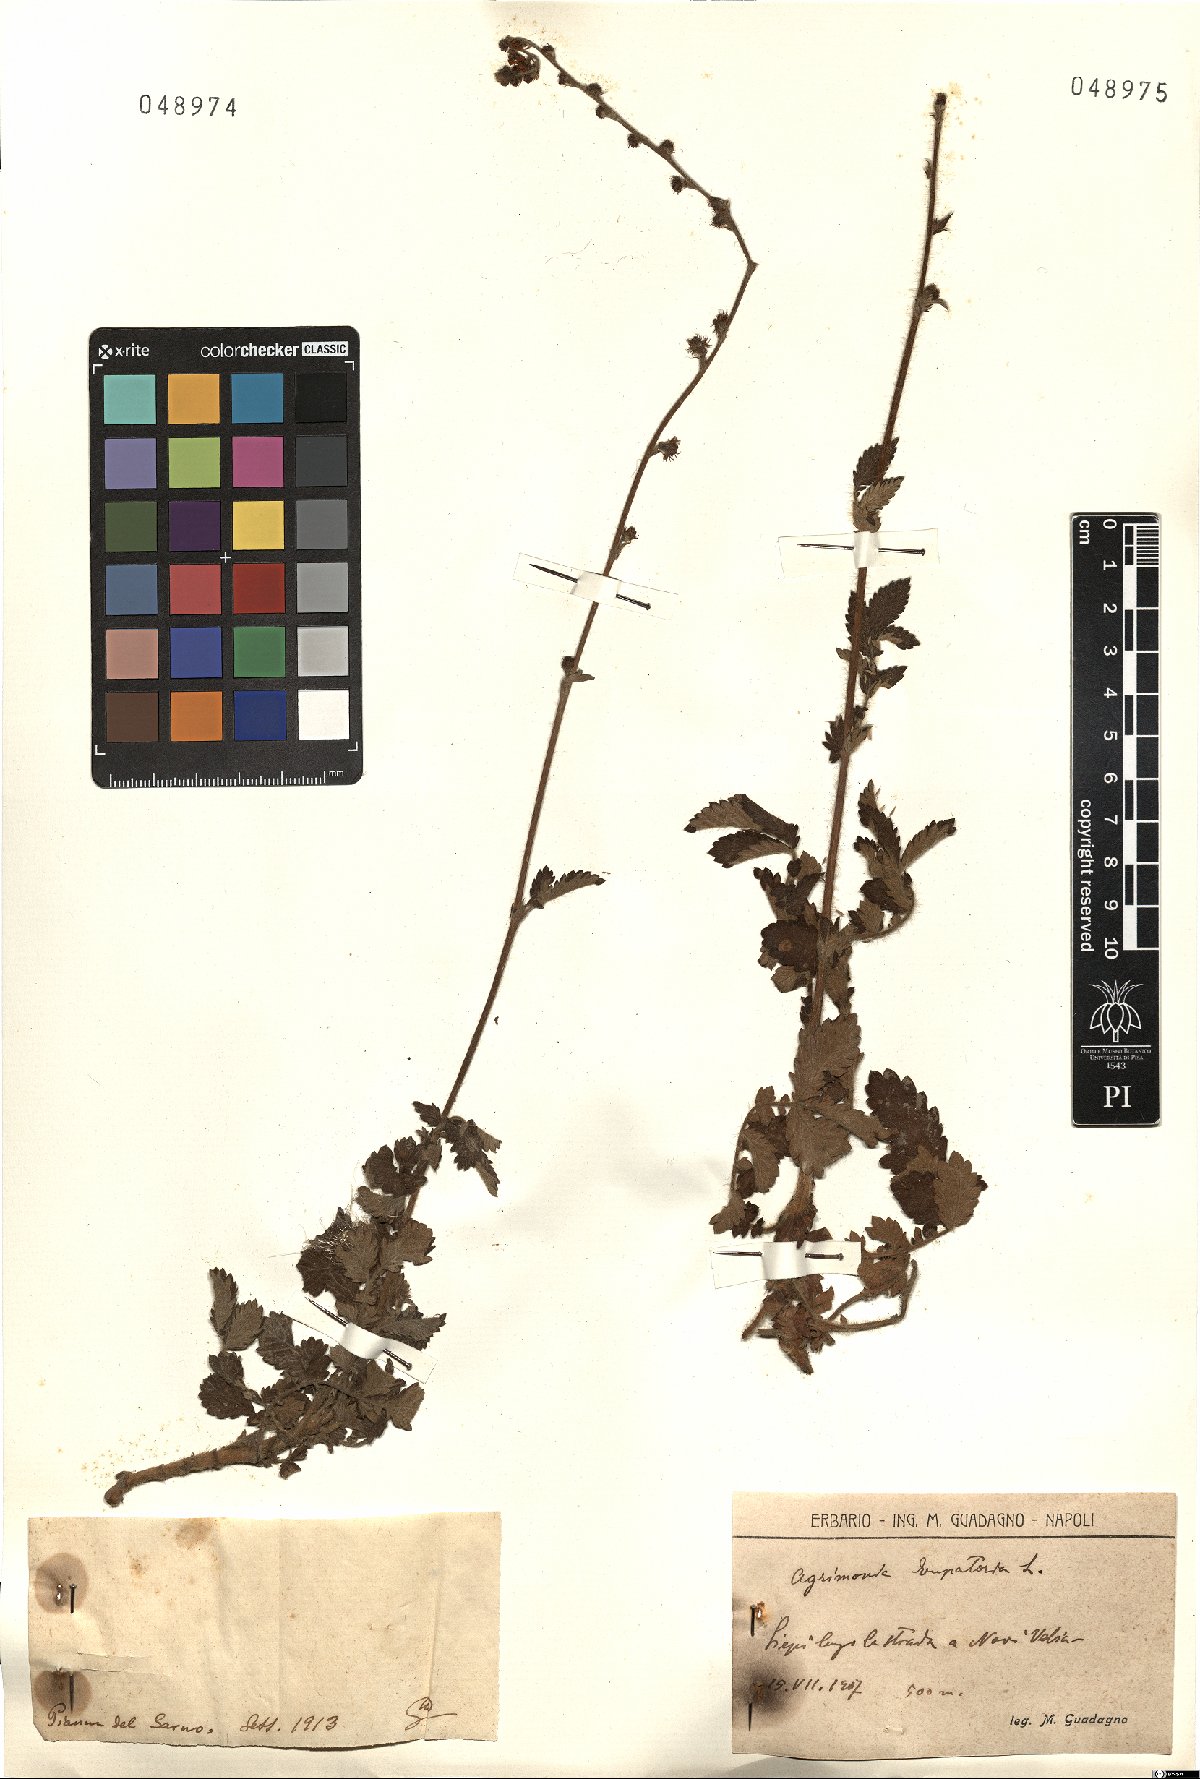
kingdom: Plantae
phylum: Tracheophyta
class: Magnoliopsida
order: Rosales
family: Rosaceae
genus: Agrimonia
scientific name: Agrimonia eupatoria
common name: Agrimony
